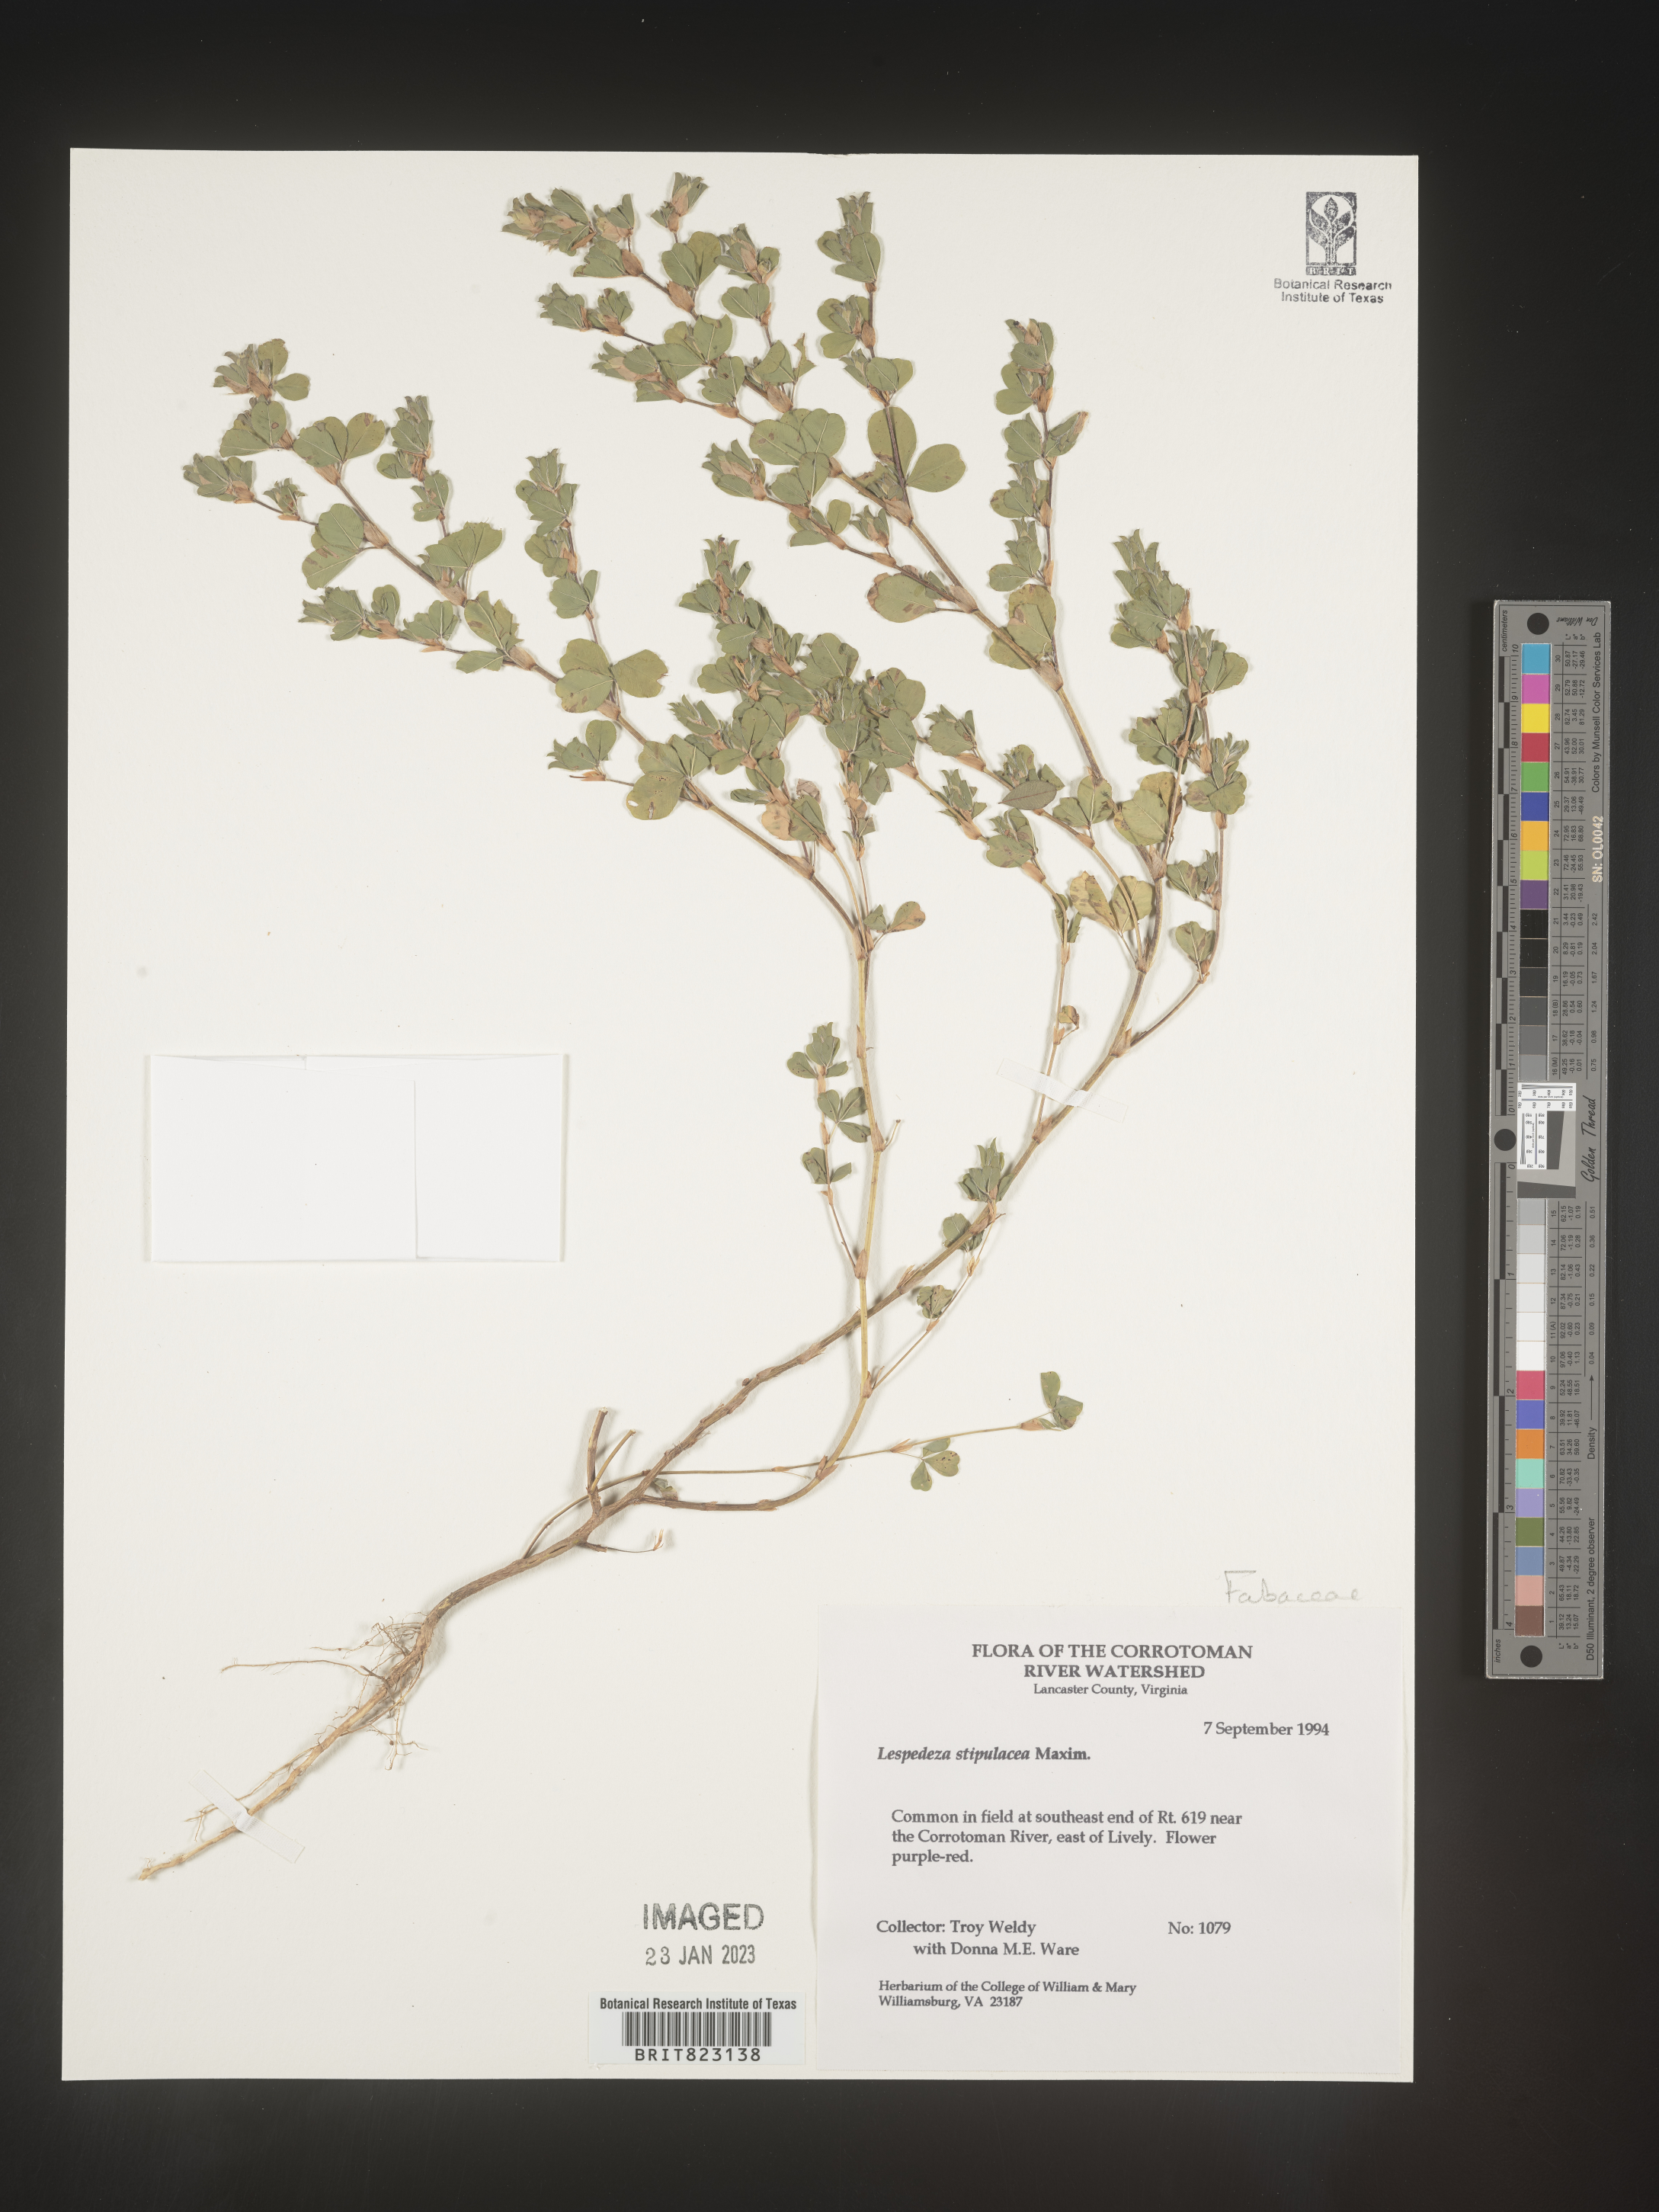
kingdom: Plantae
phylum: Tracheophyta
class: Magnoliopsida
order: Fabales
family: Fabaceae
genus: Lespedeza
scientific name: Lespedeza
